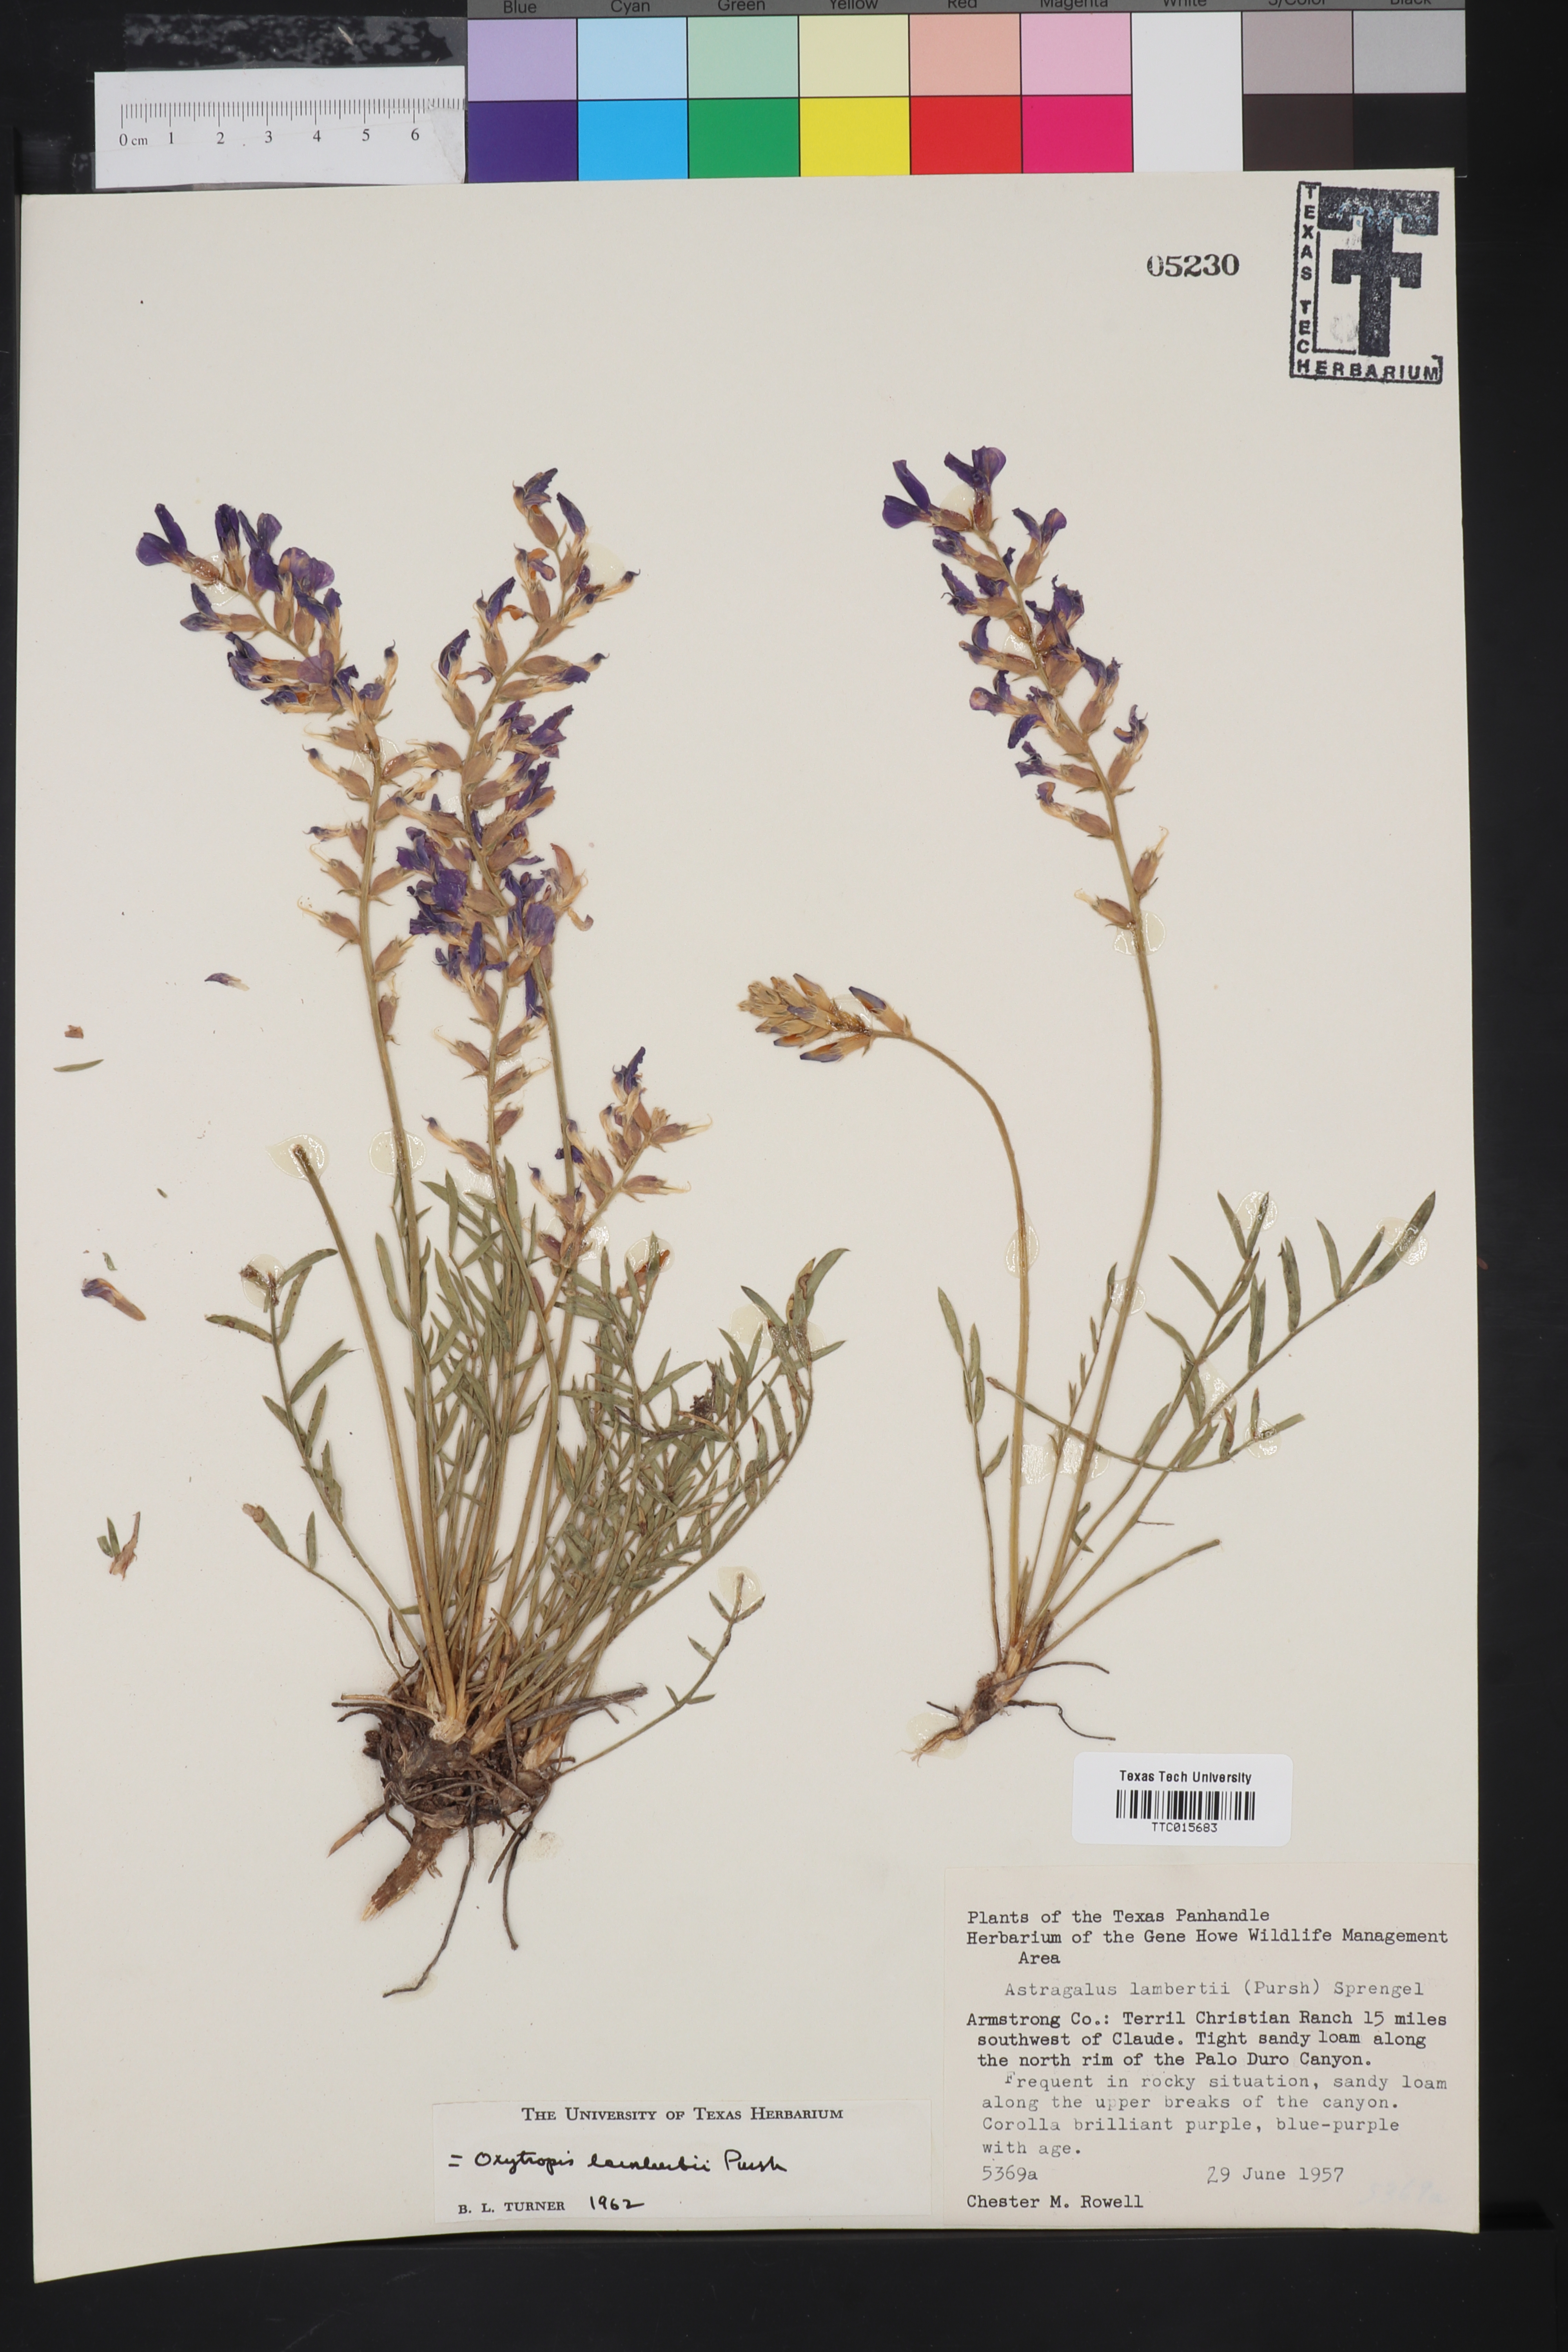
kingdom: Plantae
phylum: Tracheophyta
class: Magnoliopsida
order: Fabales
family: Fabaceae
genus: Oxytropis
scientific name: Oxytropis lambertii
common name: Purple locoweed
